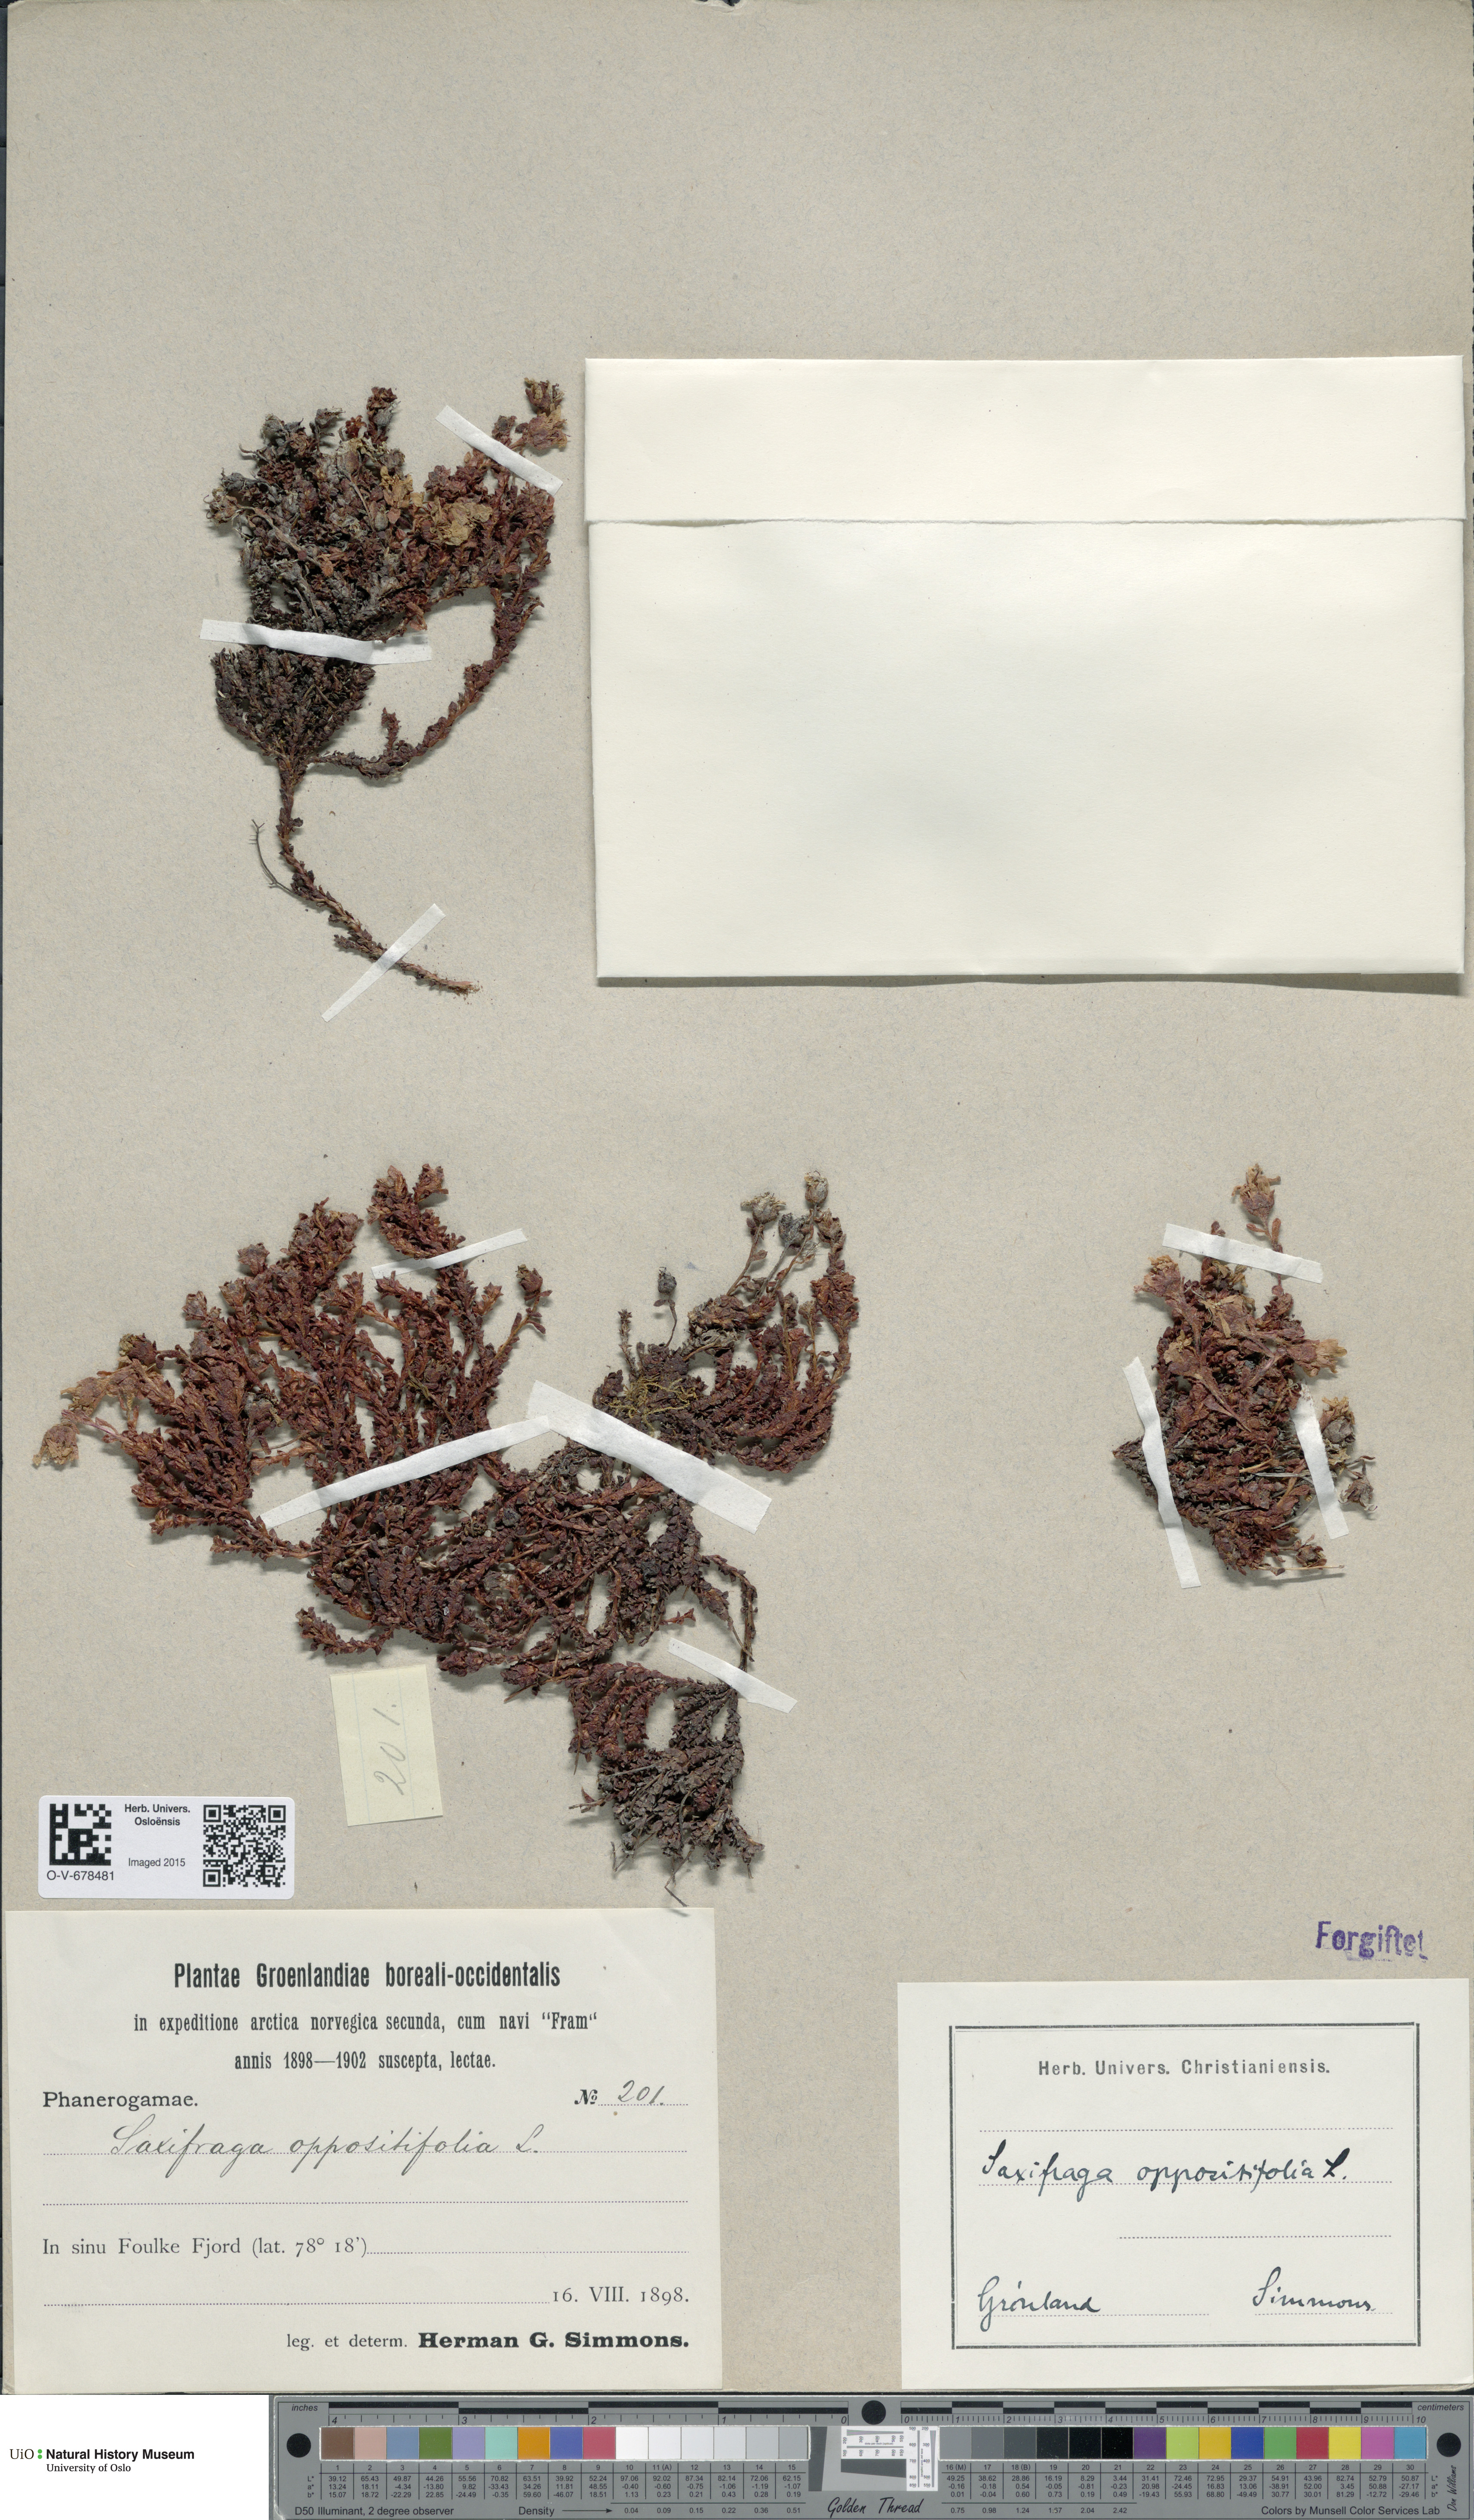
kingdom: Plantae
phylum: Tracheophyta
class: Magnoliopsida
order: Saxifragales
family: Saxifragaceae
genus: Saxifraga
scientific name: Saxifraga oppositifolia
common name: Purple saxifrage
